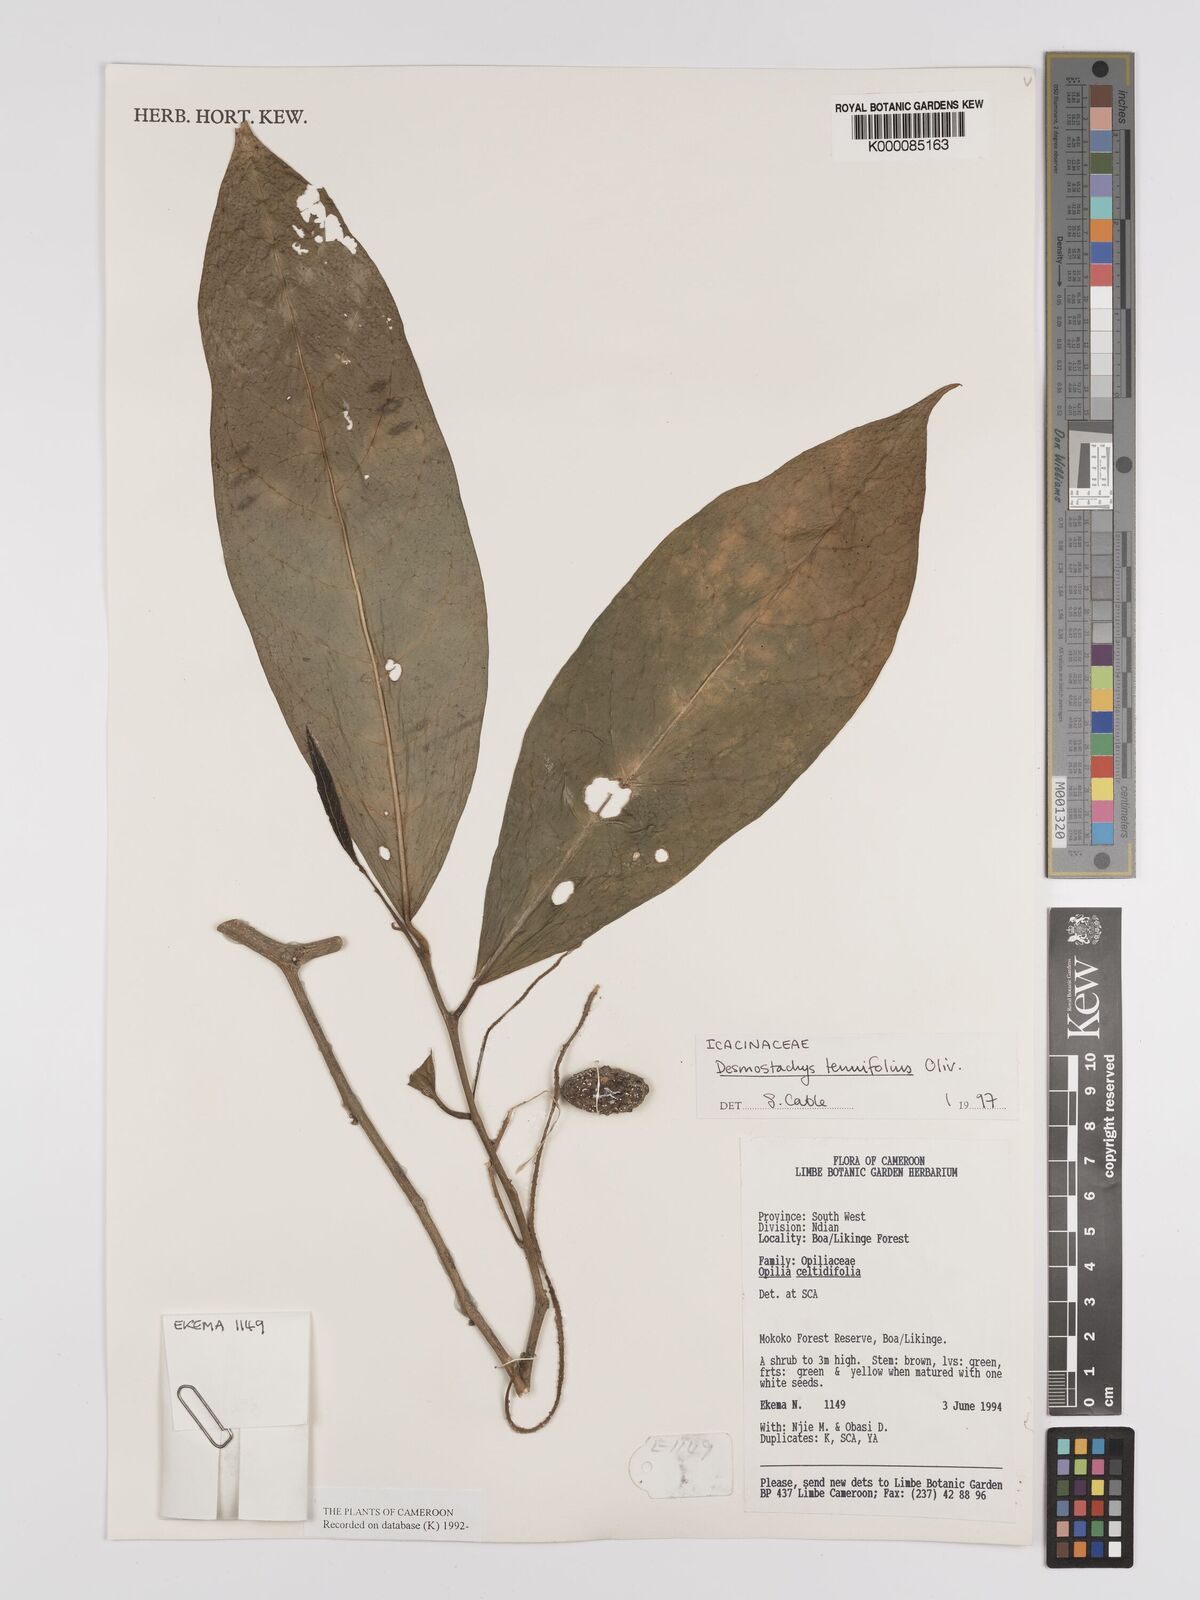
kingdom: Plantae
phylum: Tracheophyta
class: Magnoliopsida
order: Icacinales
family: Icacinaceae
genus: Vadensea
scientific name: Vadensea tenuifolia
